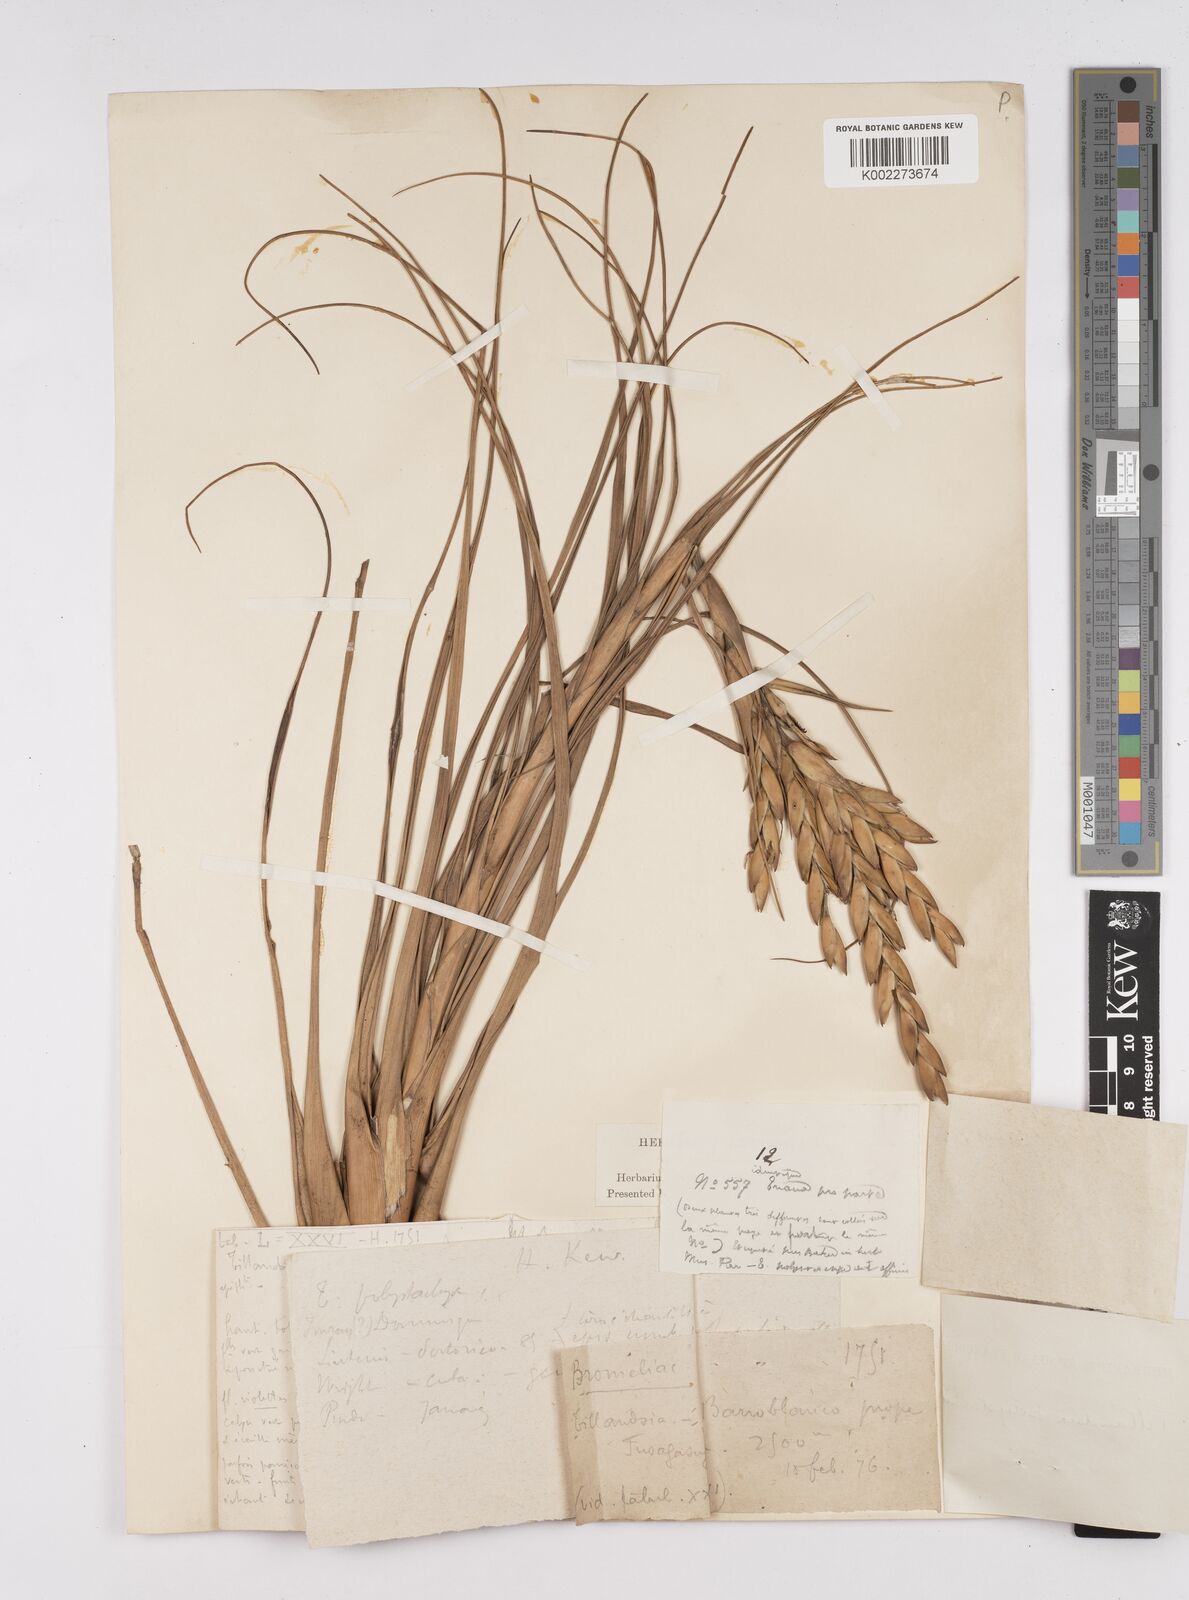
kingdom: Plantae
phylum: Tracheophyta
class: Liliopsida
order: Poales
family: Bromeliaceae
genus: Tillandsia
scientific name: Tillandsia polystachia
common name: Airplant
